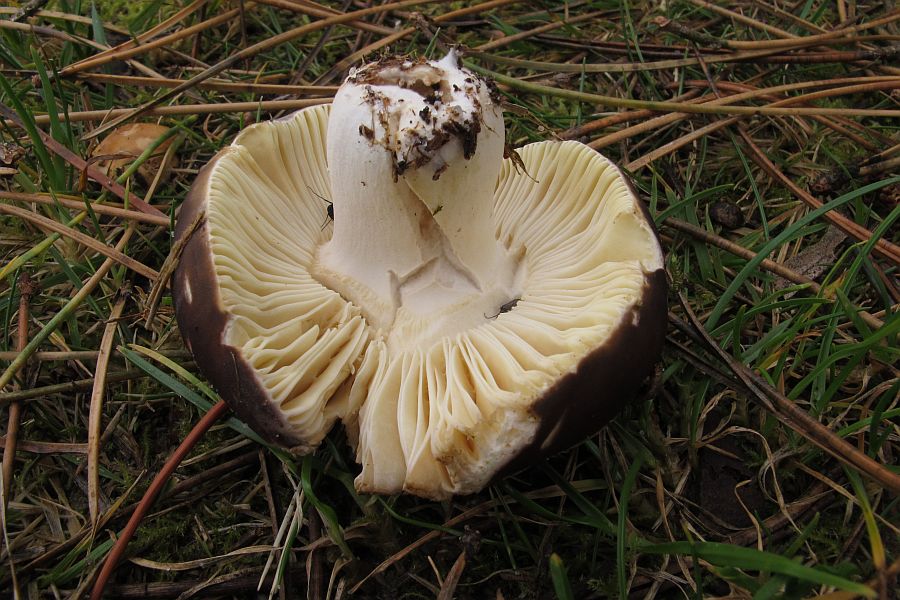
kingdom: Fungi
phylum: Basidiomycota
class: Agaricomycetes
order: Russulales
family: Russulaceae
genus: Russula
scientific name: Russula
